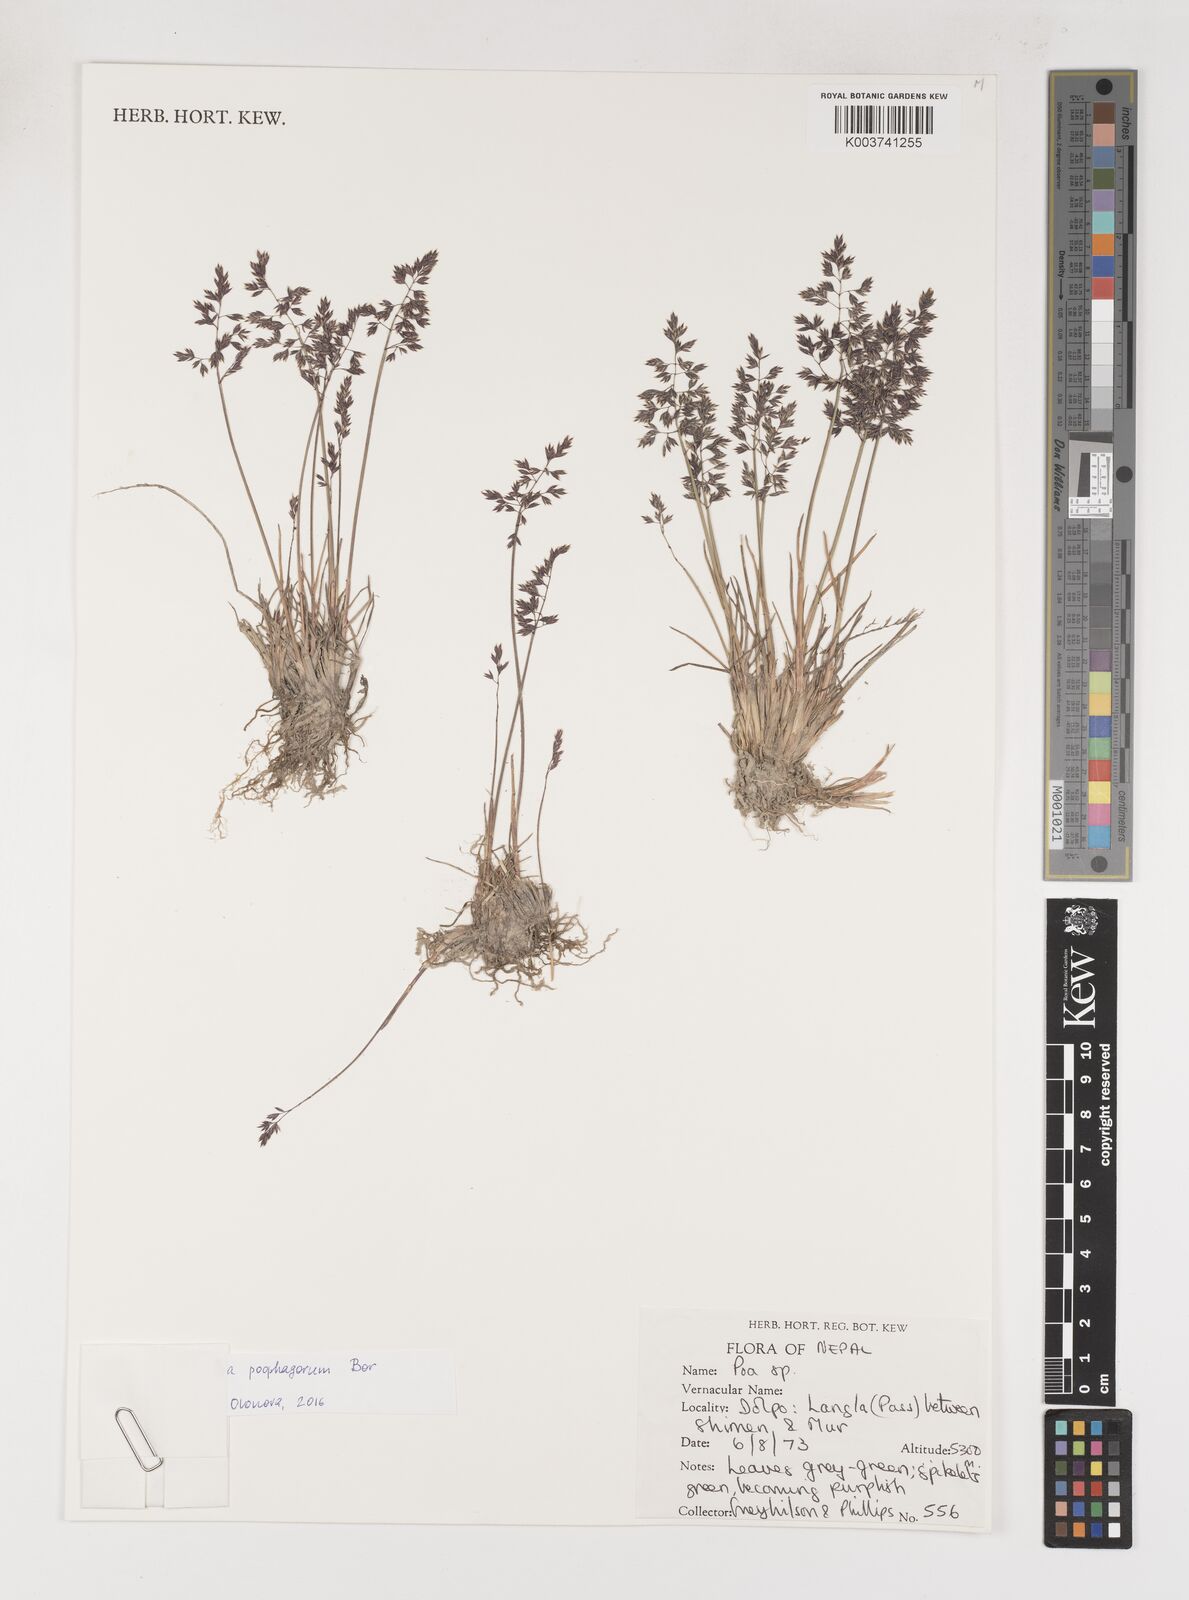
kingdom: Plantae
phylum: Tracheophyta
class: Liliopsida
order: Poales
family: Poaceae
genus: Poa
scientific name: Poa
